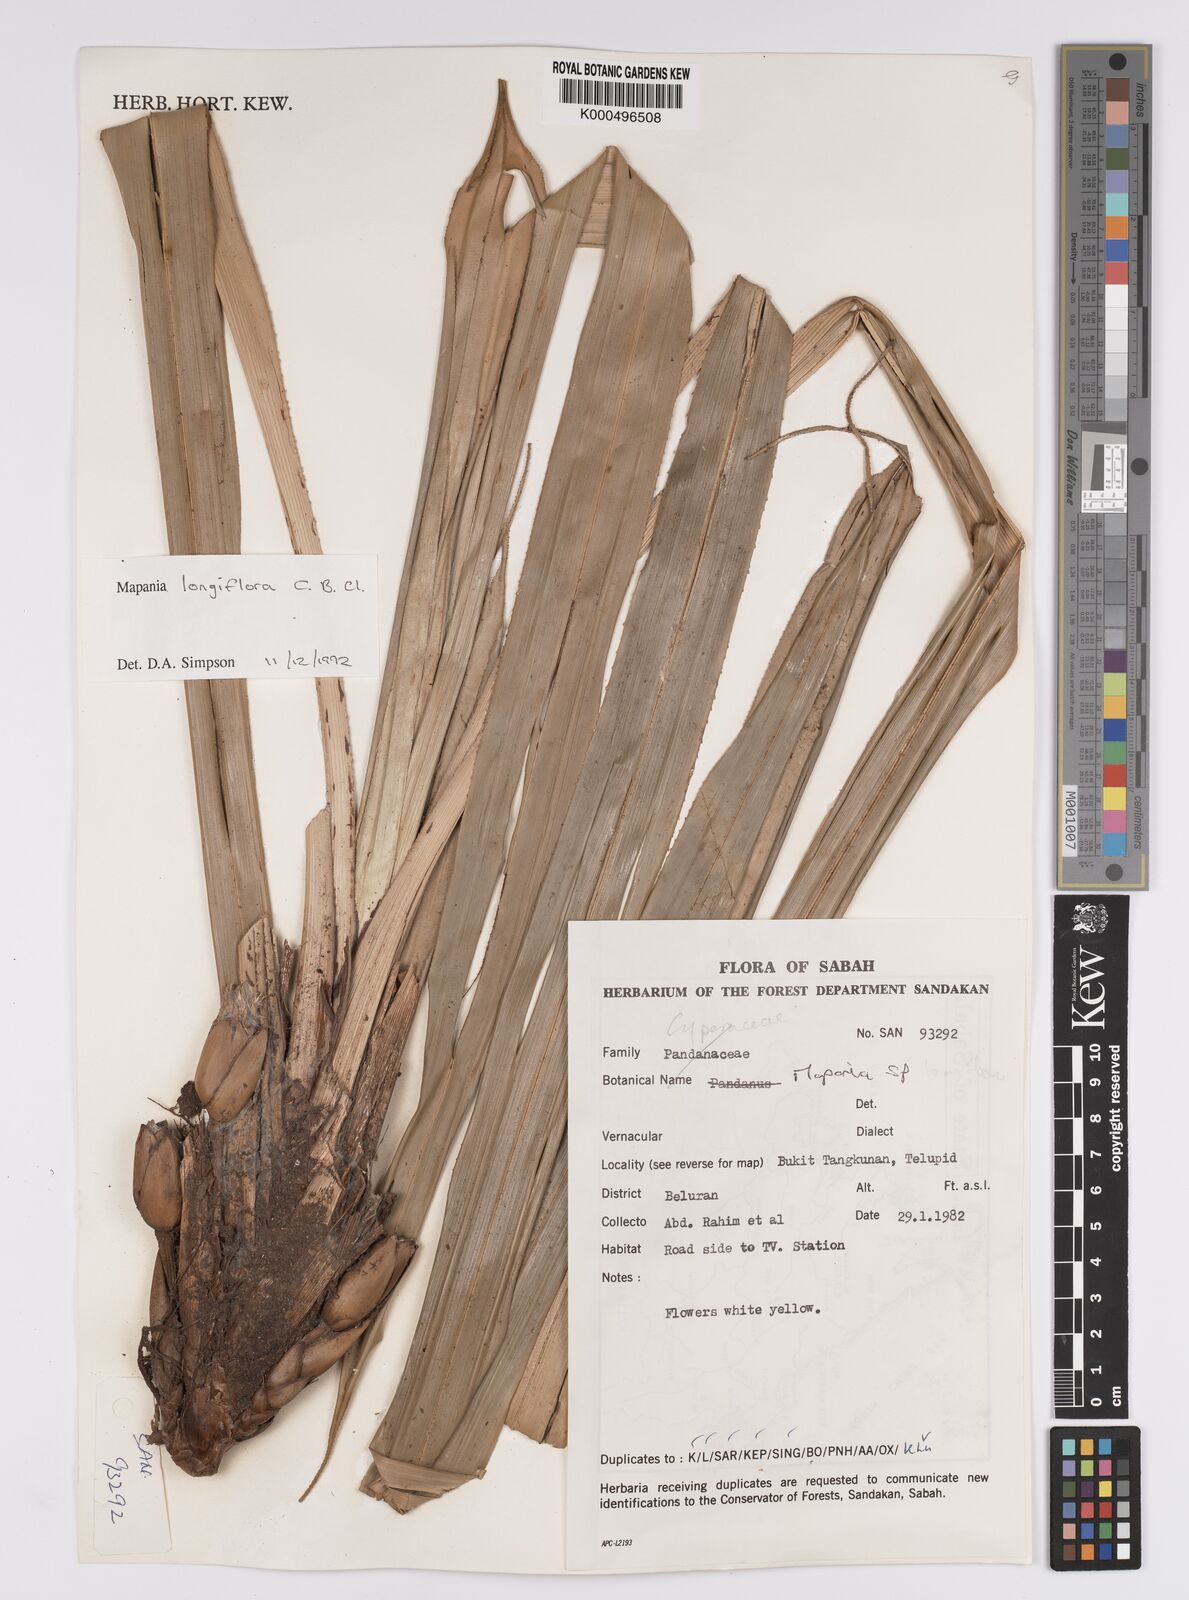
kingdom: Plantae
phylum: Tracheophyta
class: Liliopsida
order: Poales
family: Cyperaceae
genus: Mapania
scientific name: Mapania longiflora
